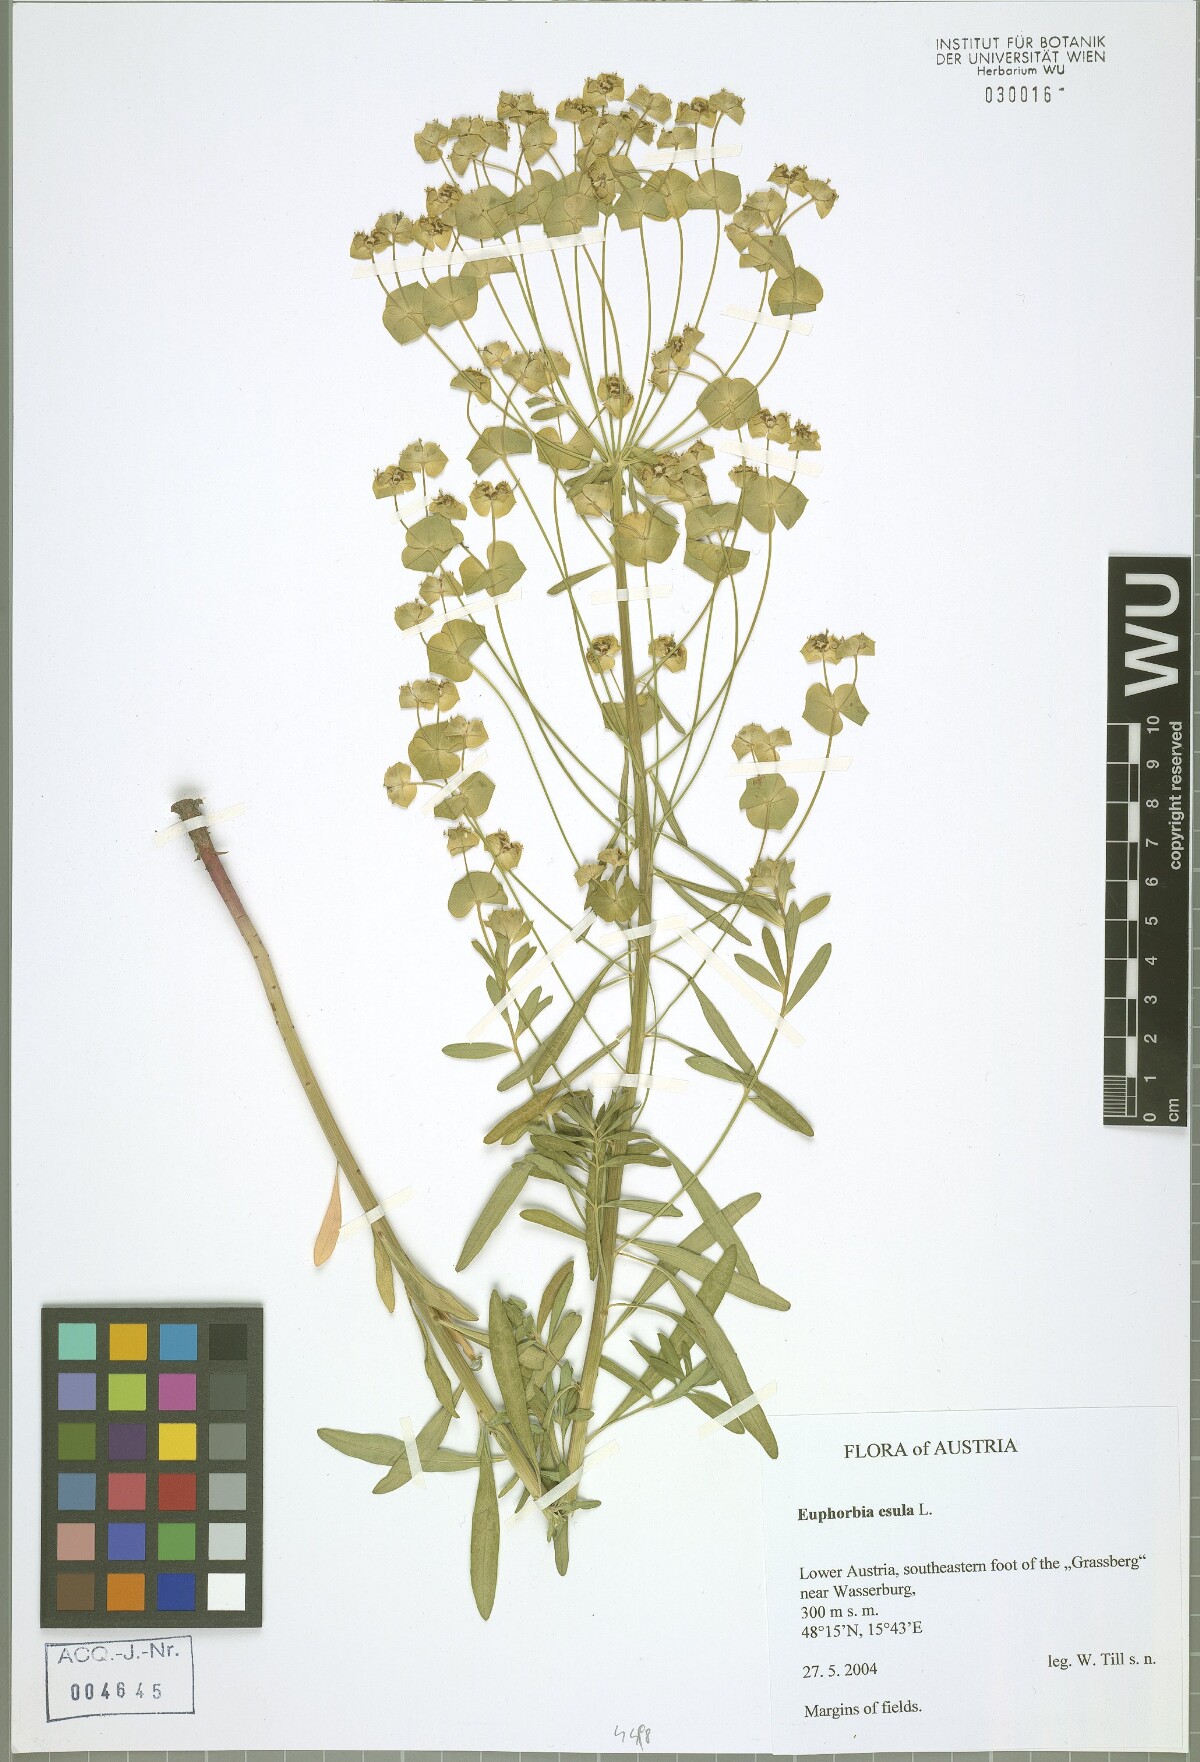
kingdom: Plantae
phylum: Tracheophyta
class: Magnoliopsida
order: Malpighiales
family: Euphorbiaceae
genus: Euphorbia
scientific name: Euphorbia esula
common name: Leafy spurge
